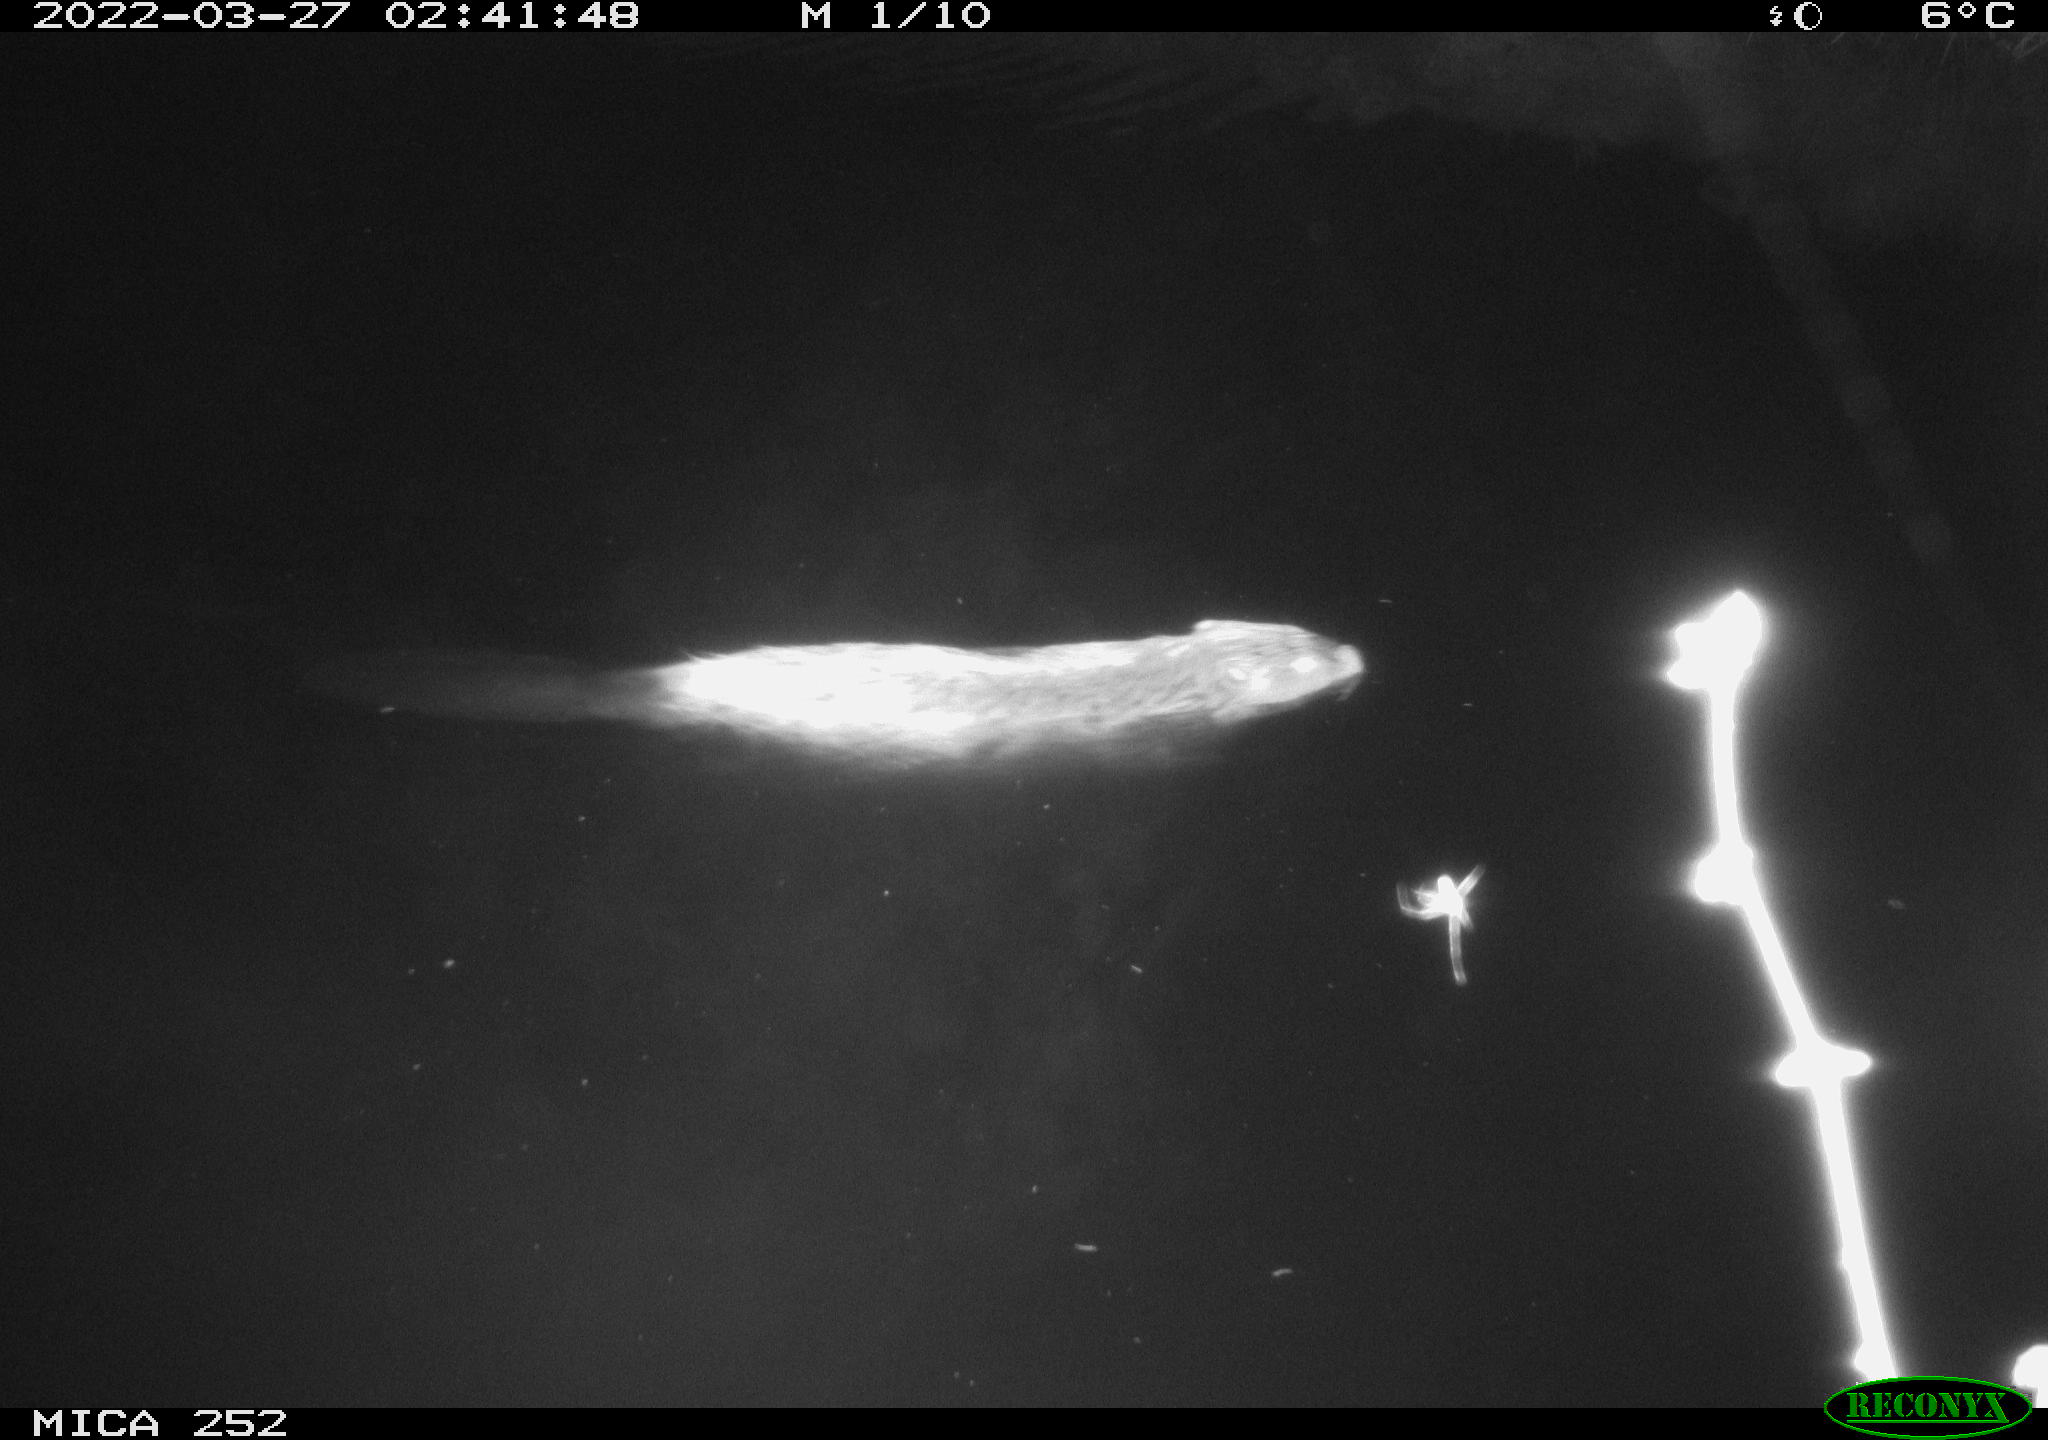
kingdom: Animalia
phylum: Chordata
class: Mammalia
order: Rodentia
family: Castoridae
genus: Castor
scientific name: Castor fiber
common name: Eurasian beaver
